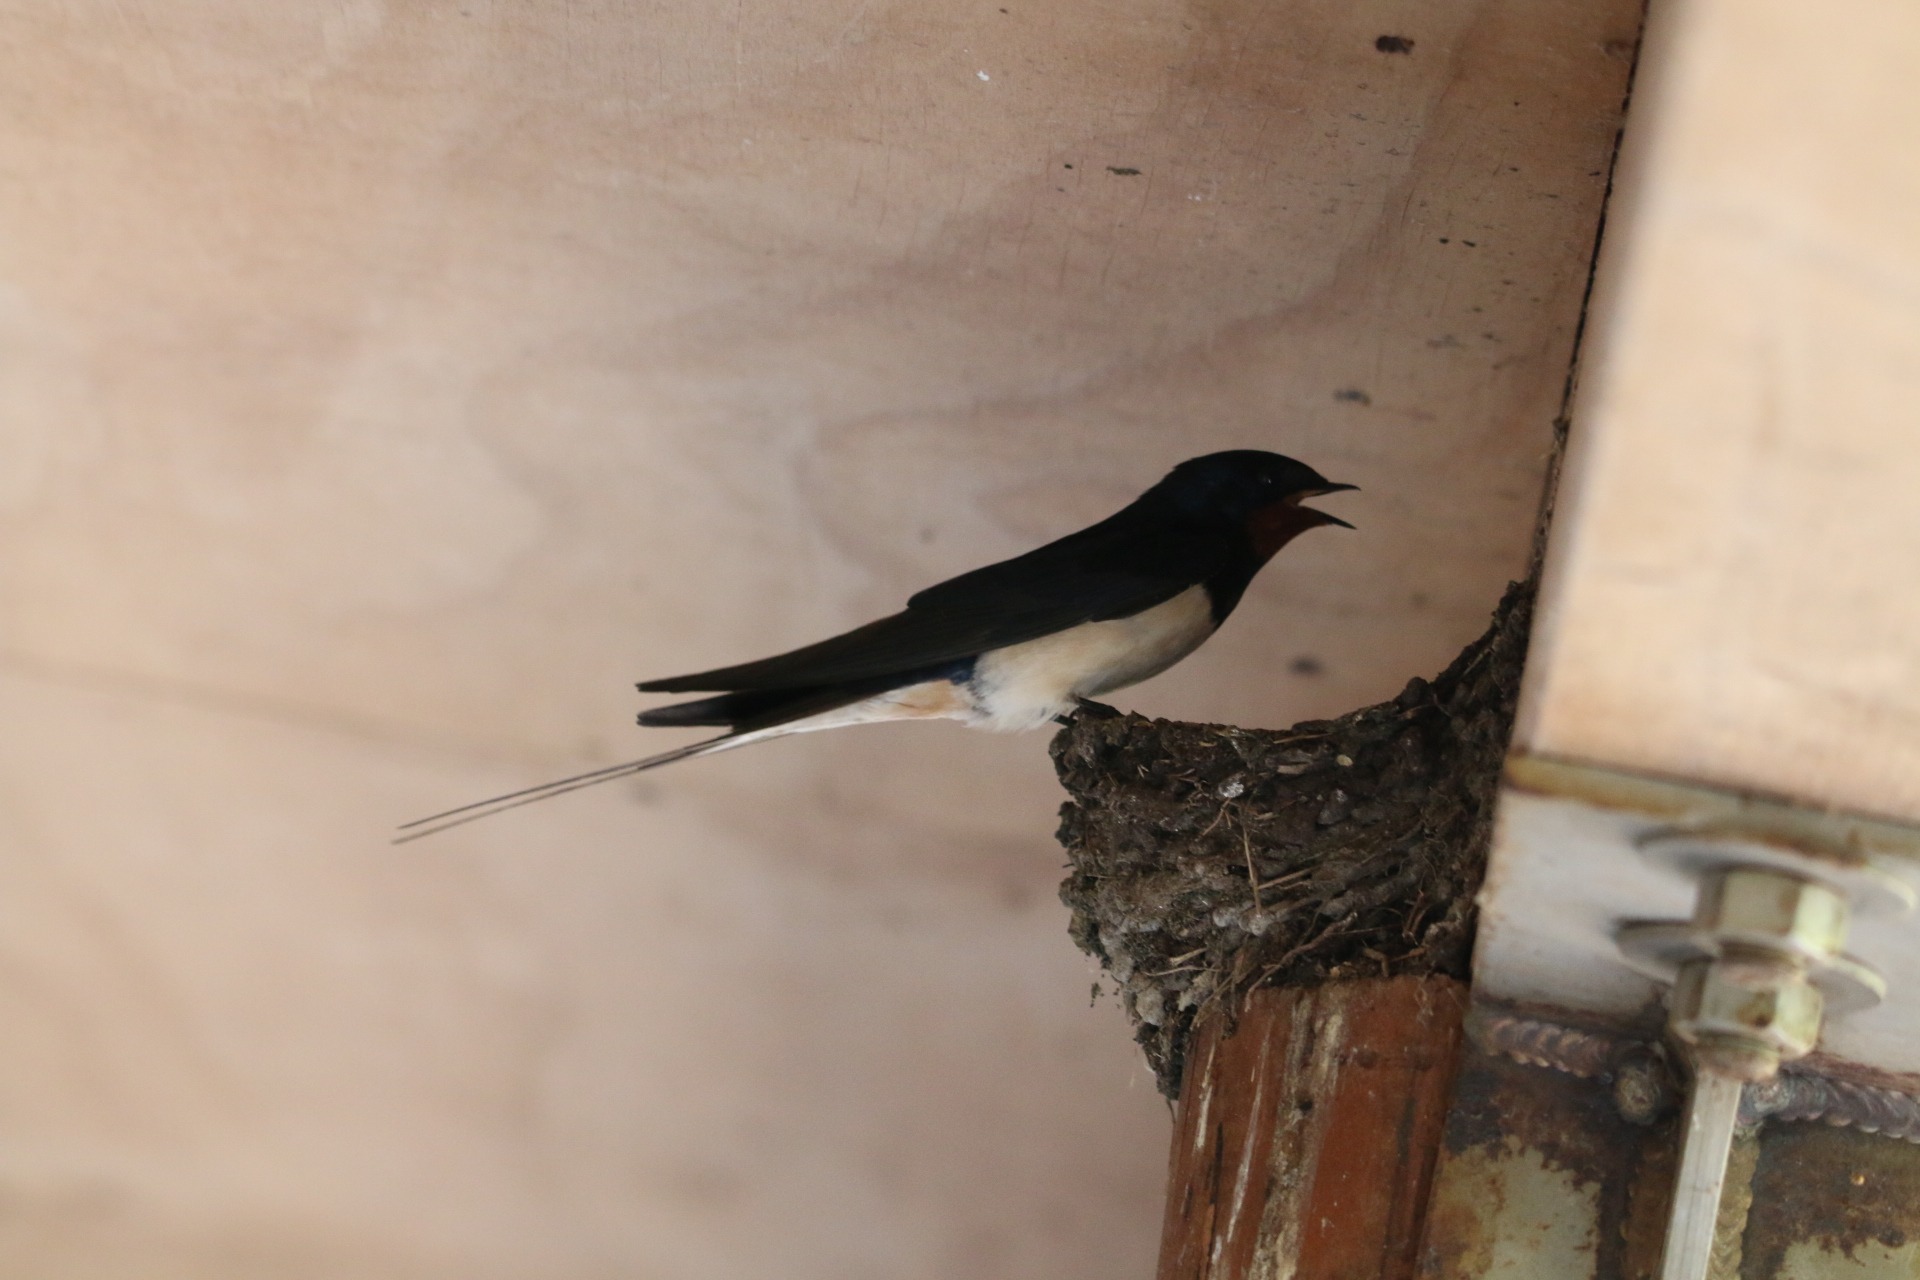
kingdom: Animalia
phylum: Chordata
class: Aves
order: Passeriformes
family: Hirundinidae
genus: Hirundo
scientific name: Hirundo rustica
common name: Landsvale
